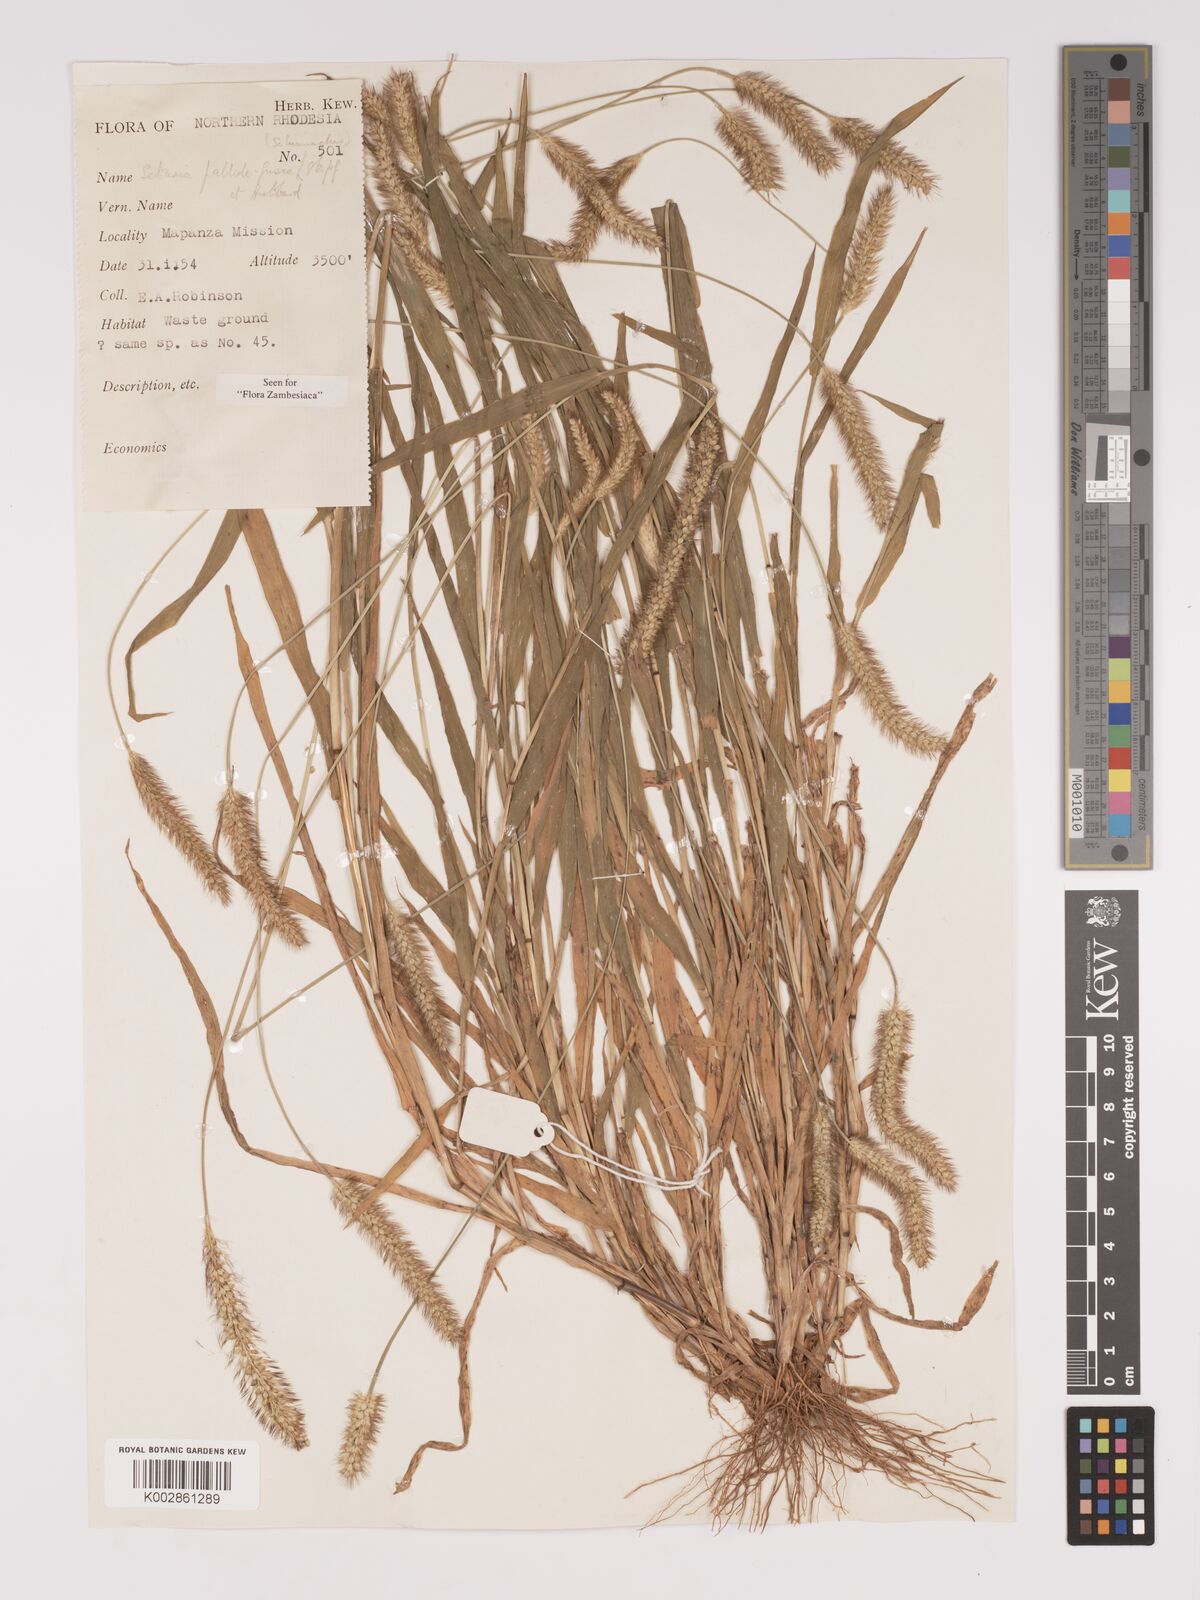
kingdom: Plantae
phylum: Tracheophyta
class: Liliopsida
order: Poales
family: Poaceae
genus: Setaria
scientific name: Setaria pumila
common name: Yellow bristle-grass
